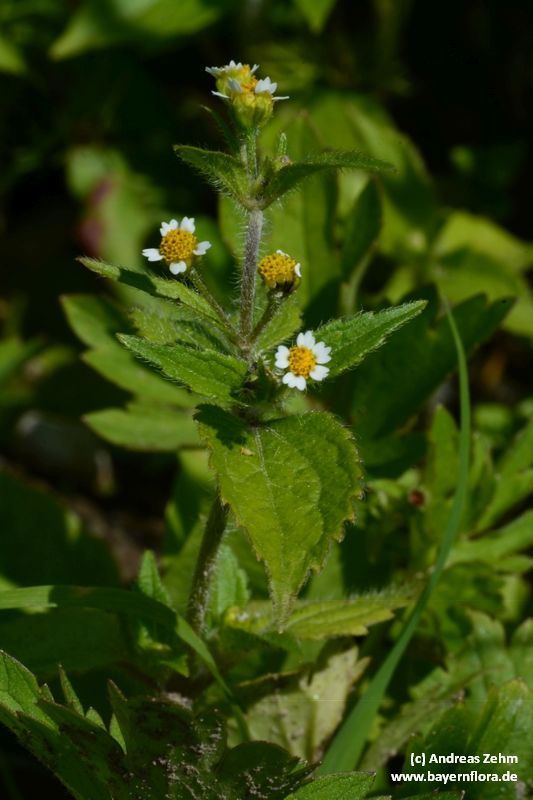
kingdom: Plantae
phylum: Tracheophyta
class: Magnoliopsida
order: Asterales
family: Asteraceae
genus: Galinsoga
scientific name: Galinsoga quadriradiata
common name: Shaggy soldier
